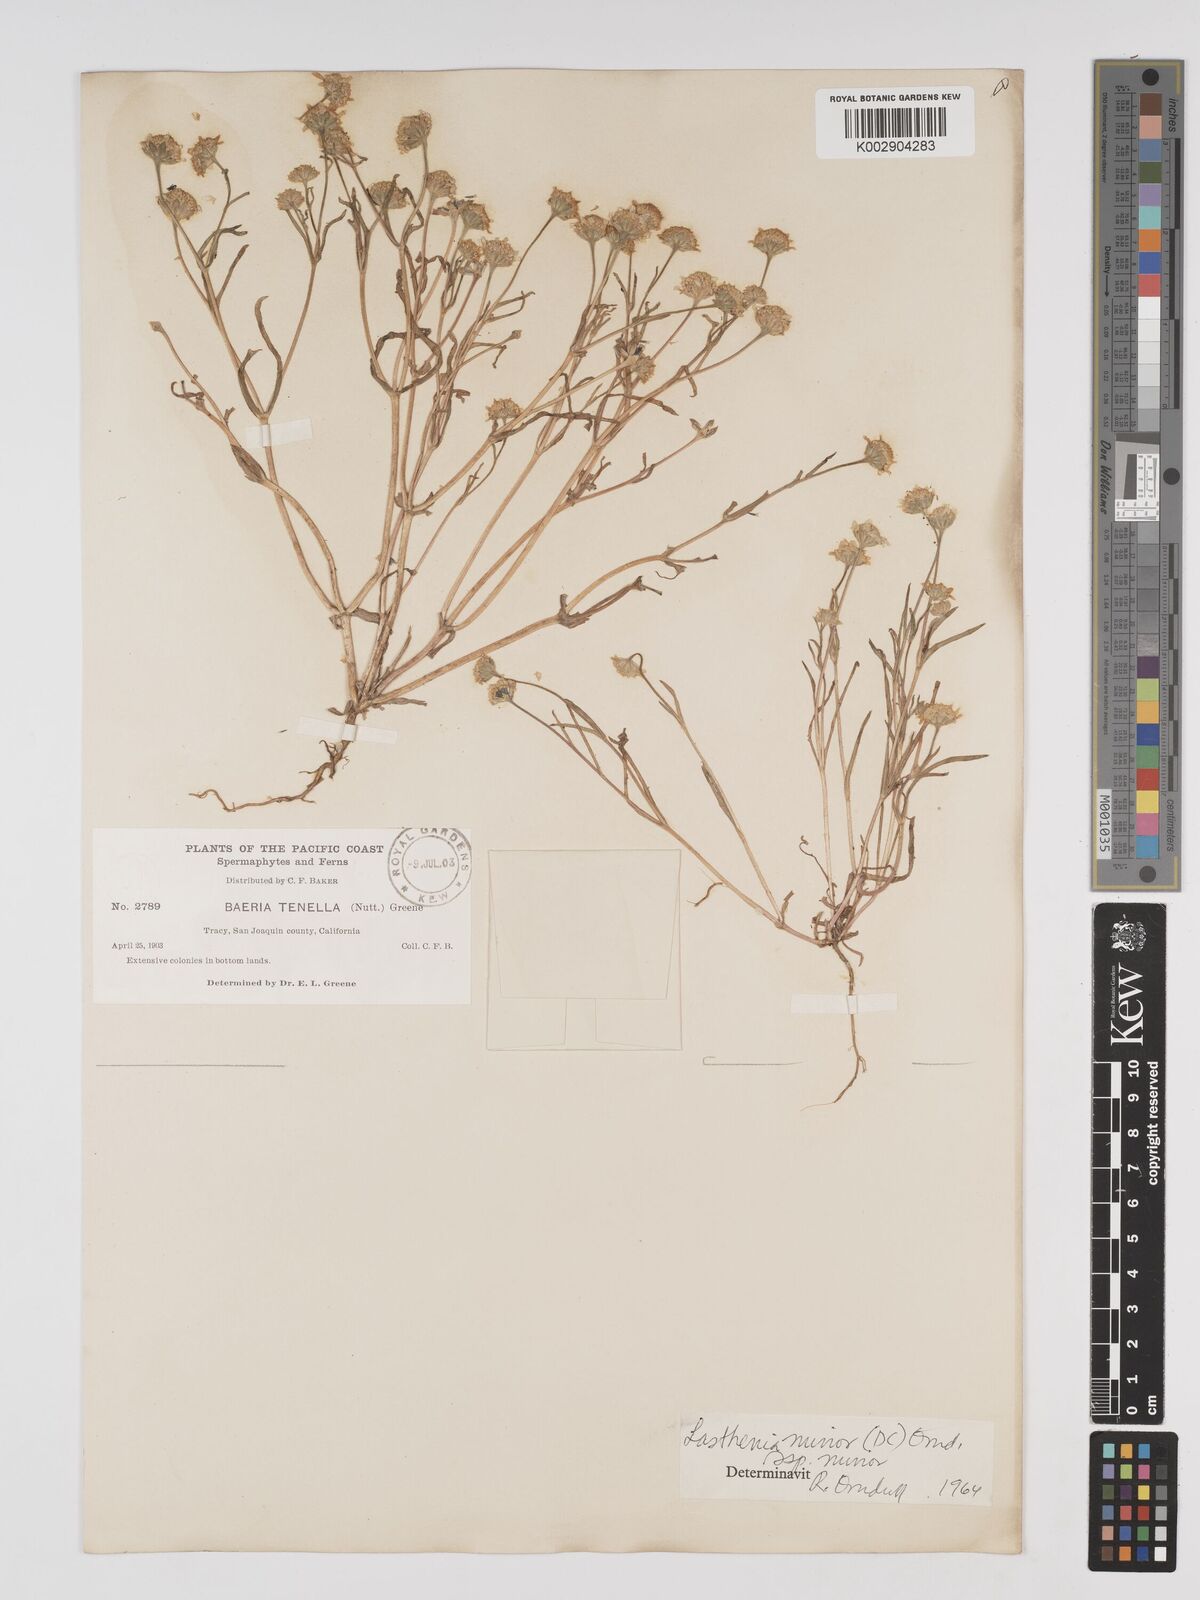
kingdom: Plantae
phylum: Tracheophyta
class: Magnoliopsida
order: Asterales
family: Asteraceae
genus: Lasthenia
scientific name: Lasthenia minor
